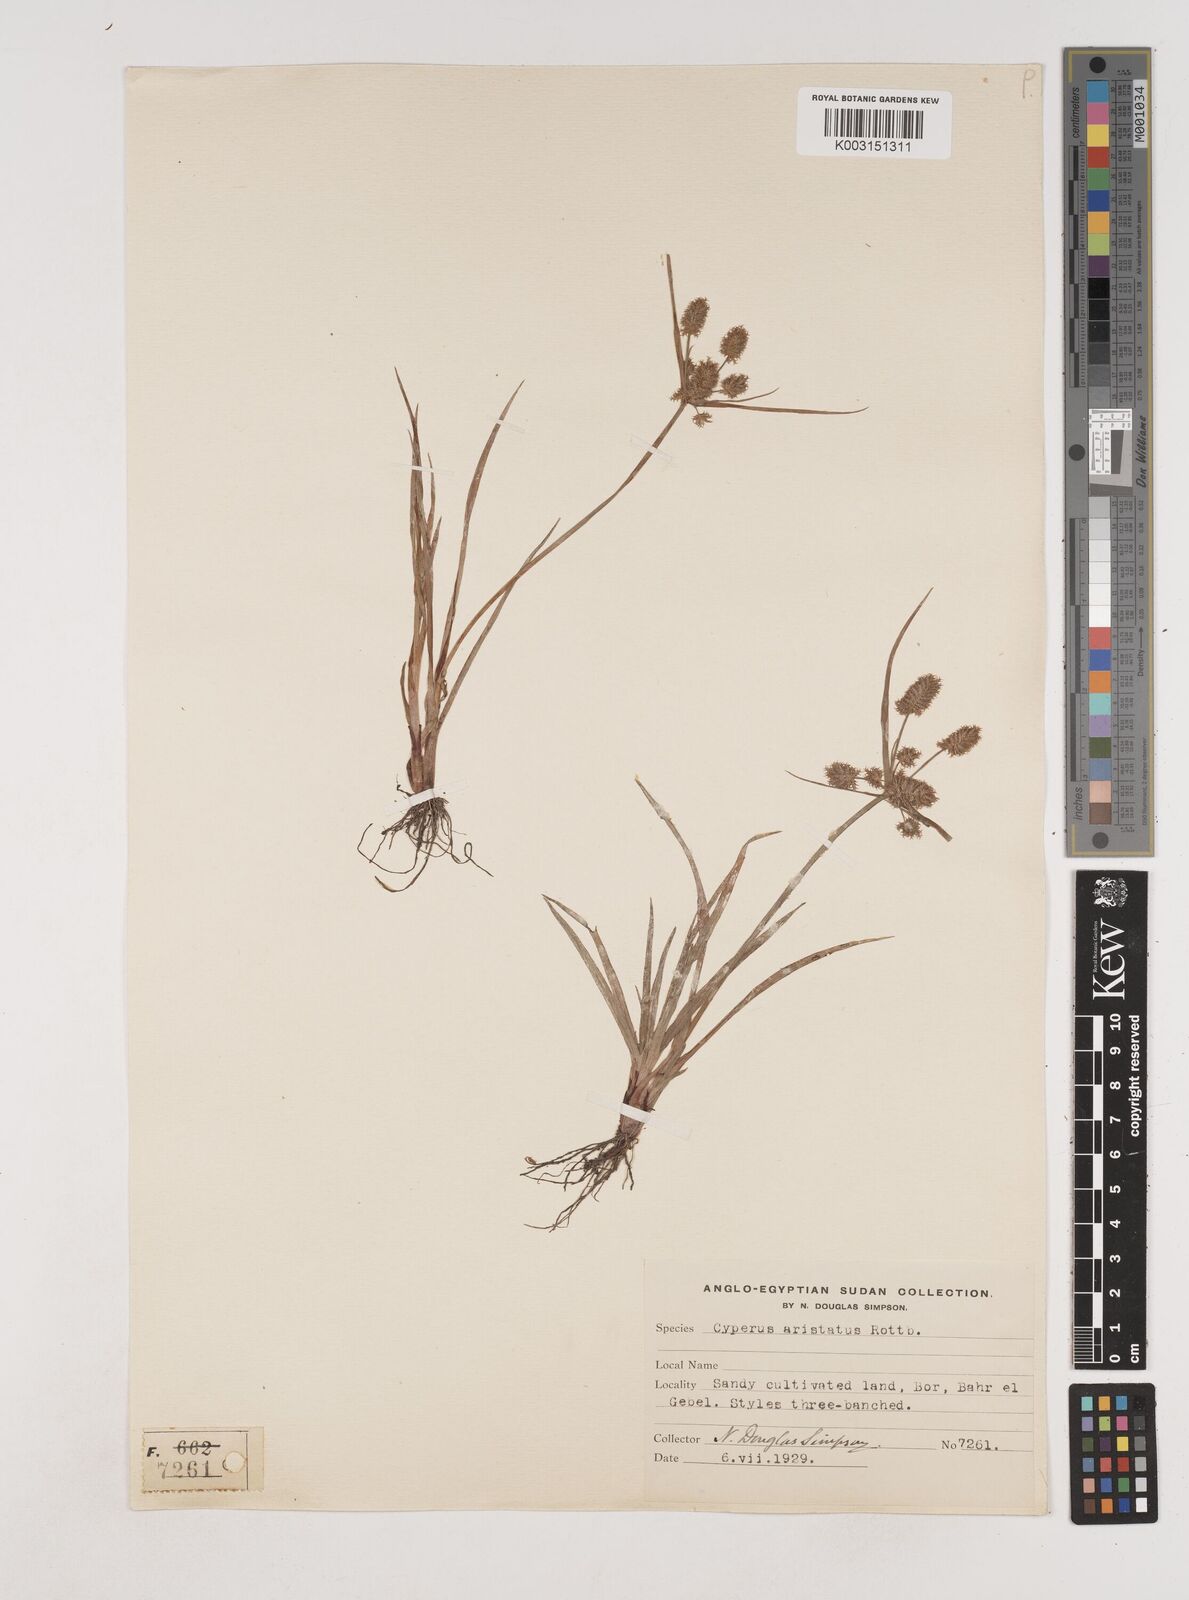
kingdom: Plantae
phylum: Tracheophyta
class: Liliopsida
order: Poales
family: Cyperaceae
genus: Cyperus
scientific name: Cyperus squarrosus
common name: Awned cyperus
